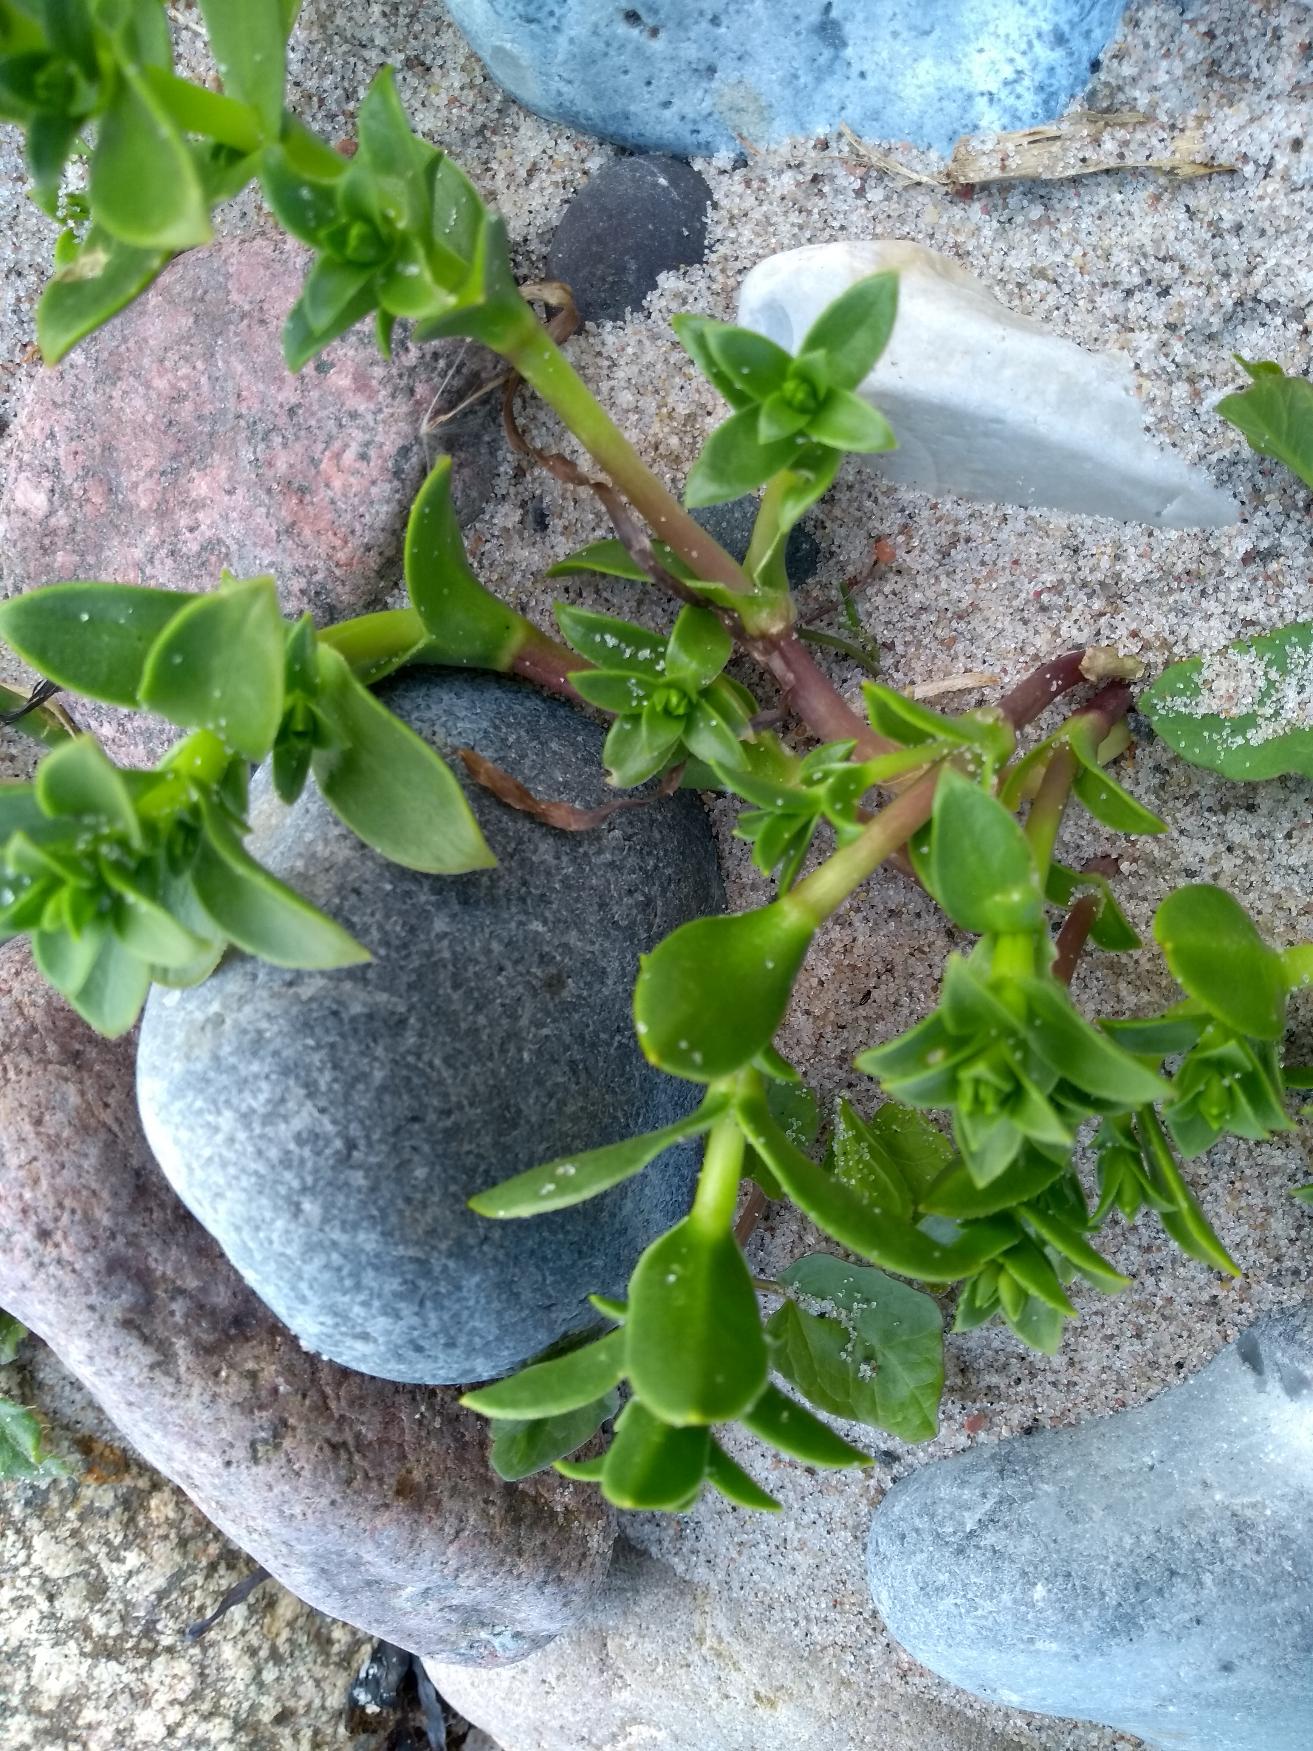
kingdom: Plantae
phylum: Tracheophyta
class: Magnoliopsida
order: Caryophyllales
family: Caryophyllaceae
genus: Honckenya
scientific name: Honckenya peploides
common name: Strandarve
